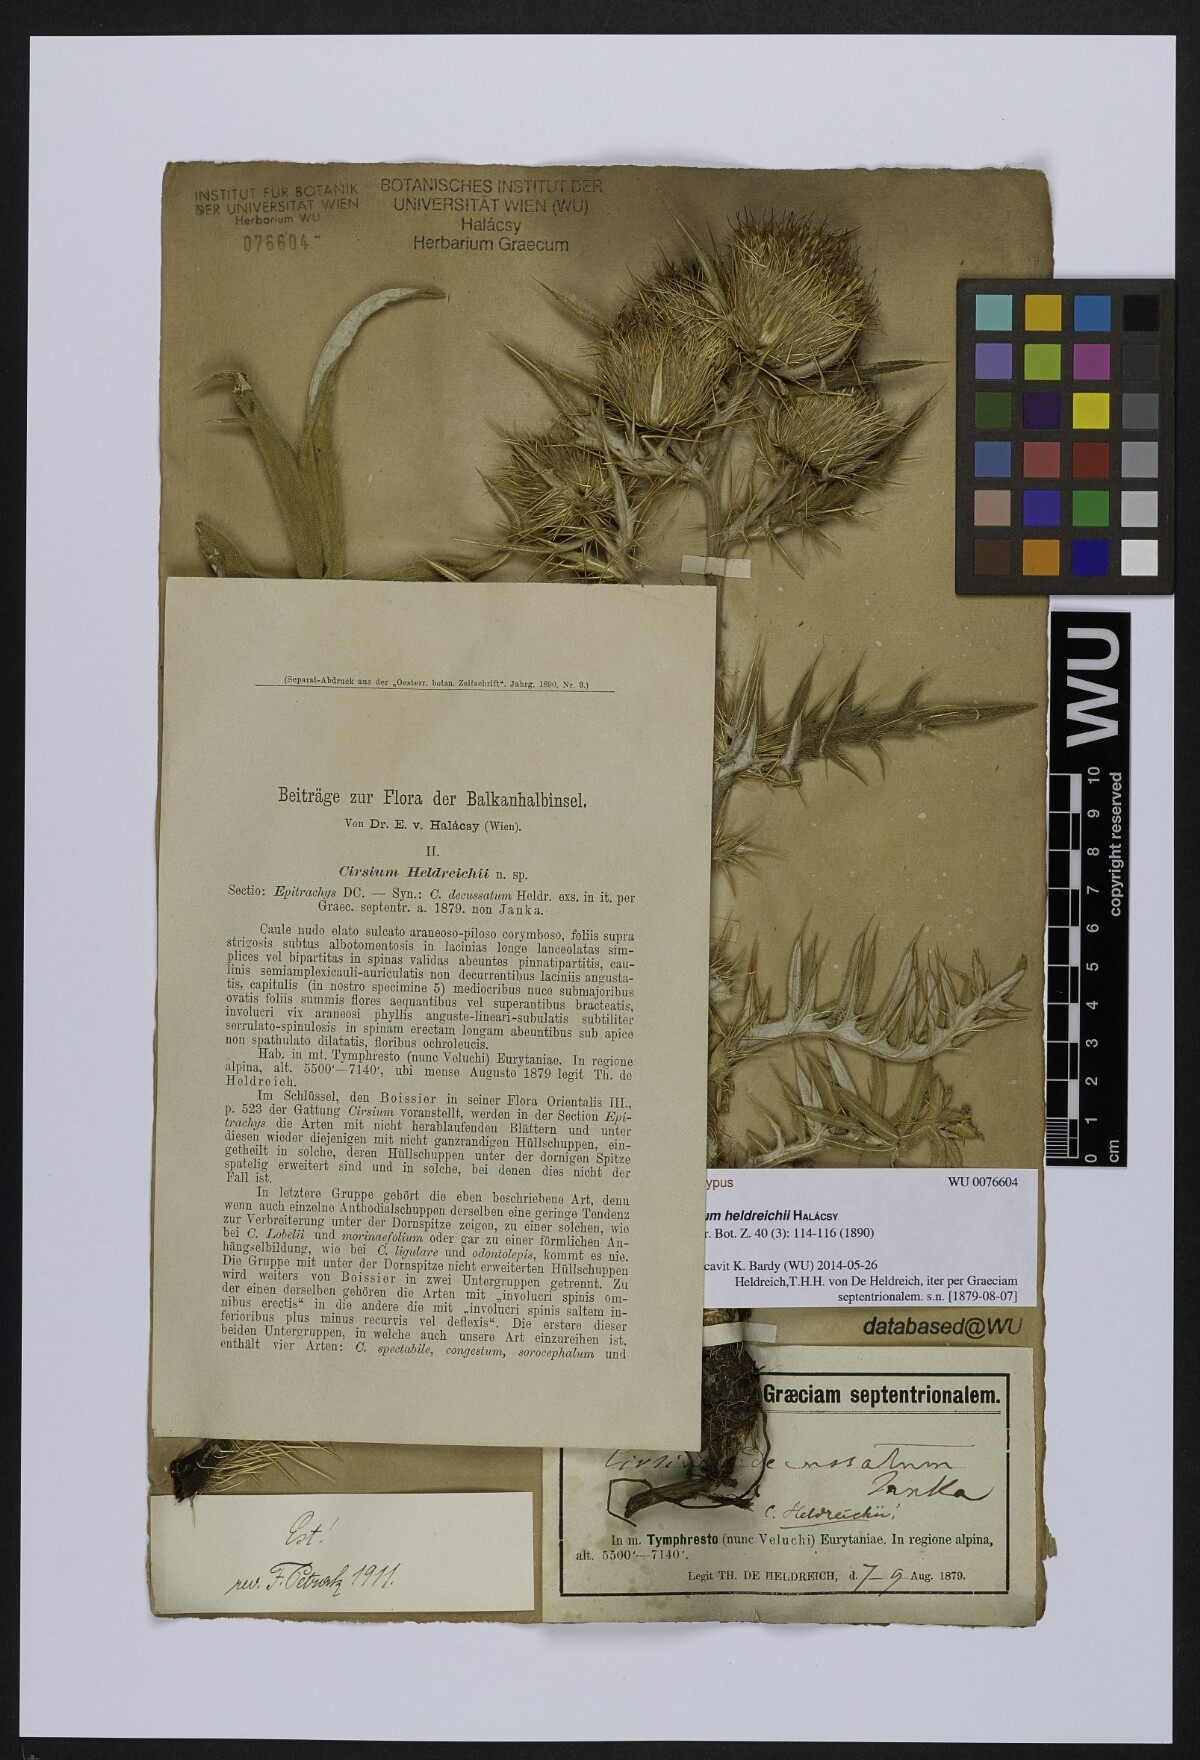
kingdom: Plantae
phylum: Tracheophyta
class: Magnoliopsida
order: Asterales
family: Asteraceae
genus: Lophiolepis
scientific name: Lophiolepis heldreichii
